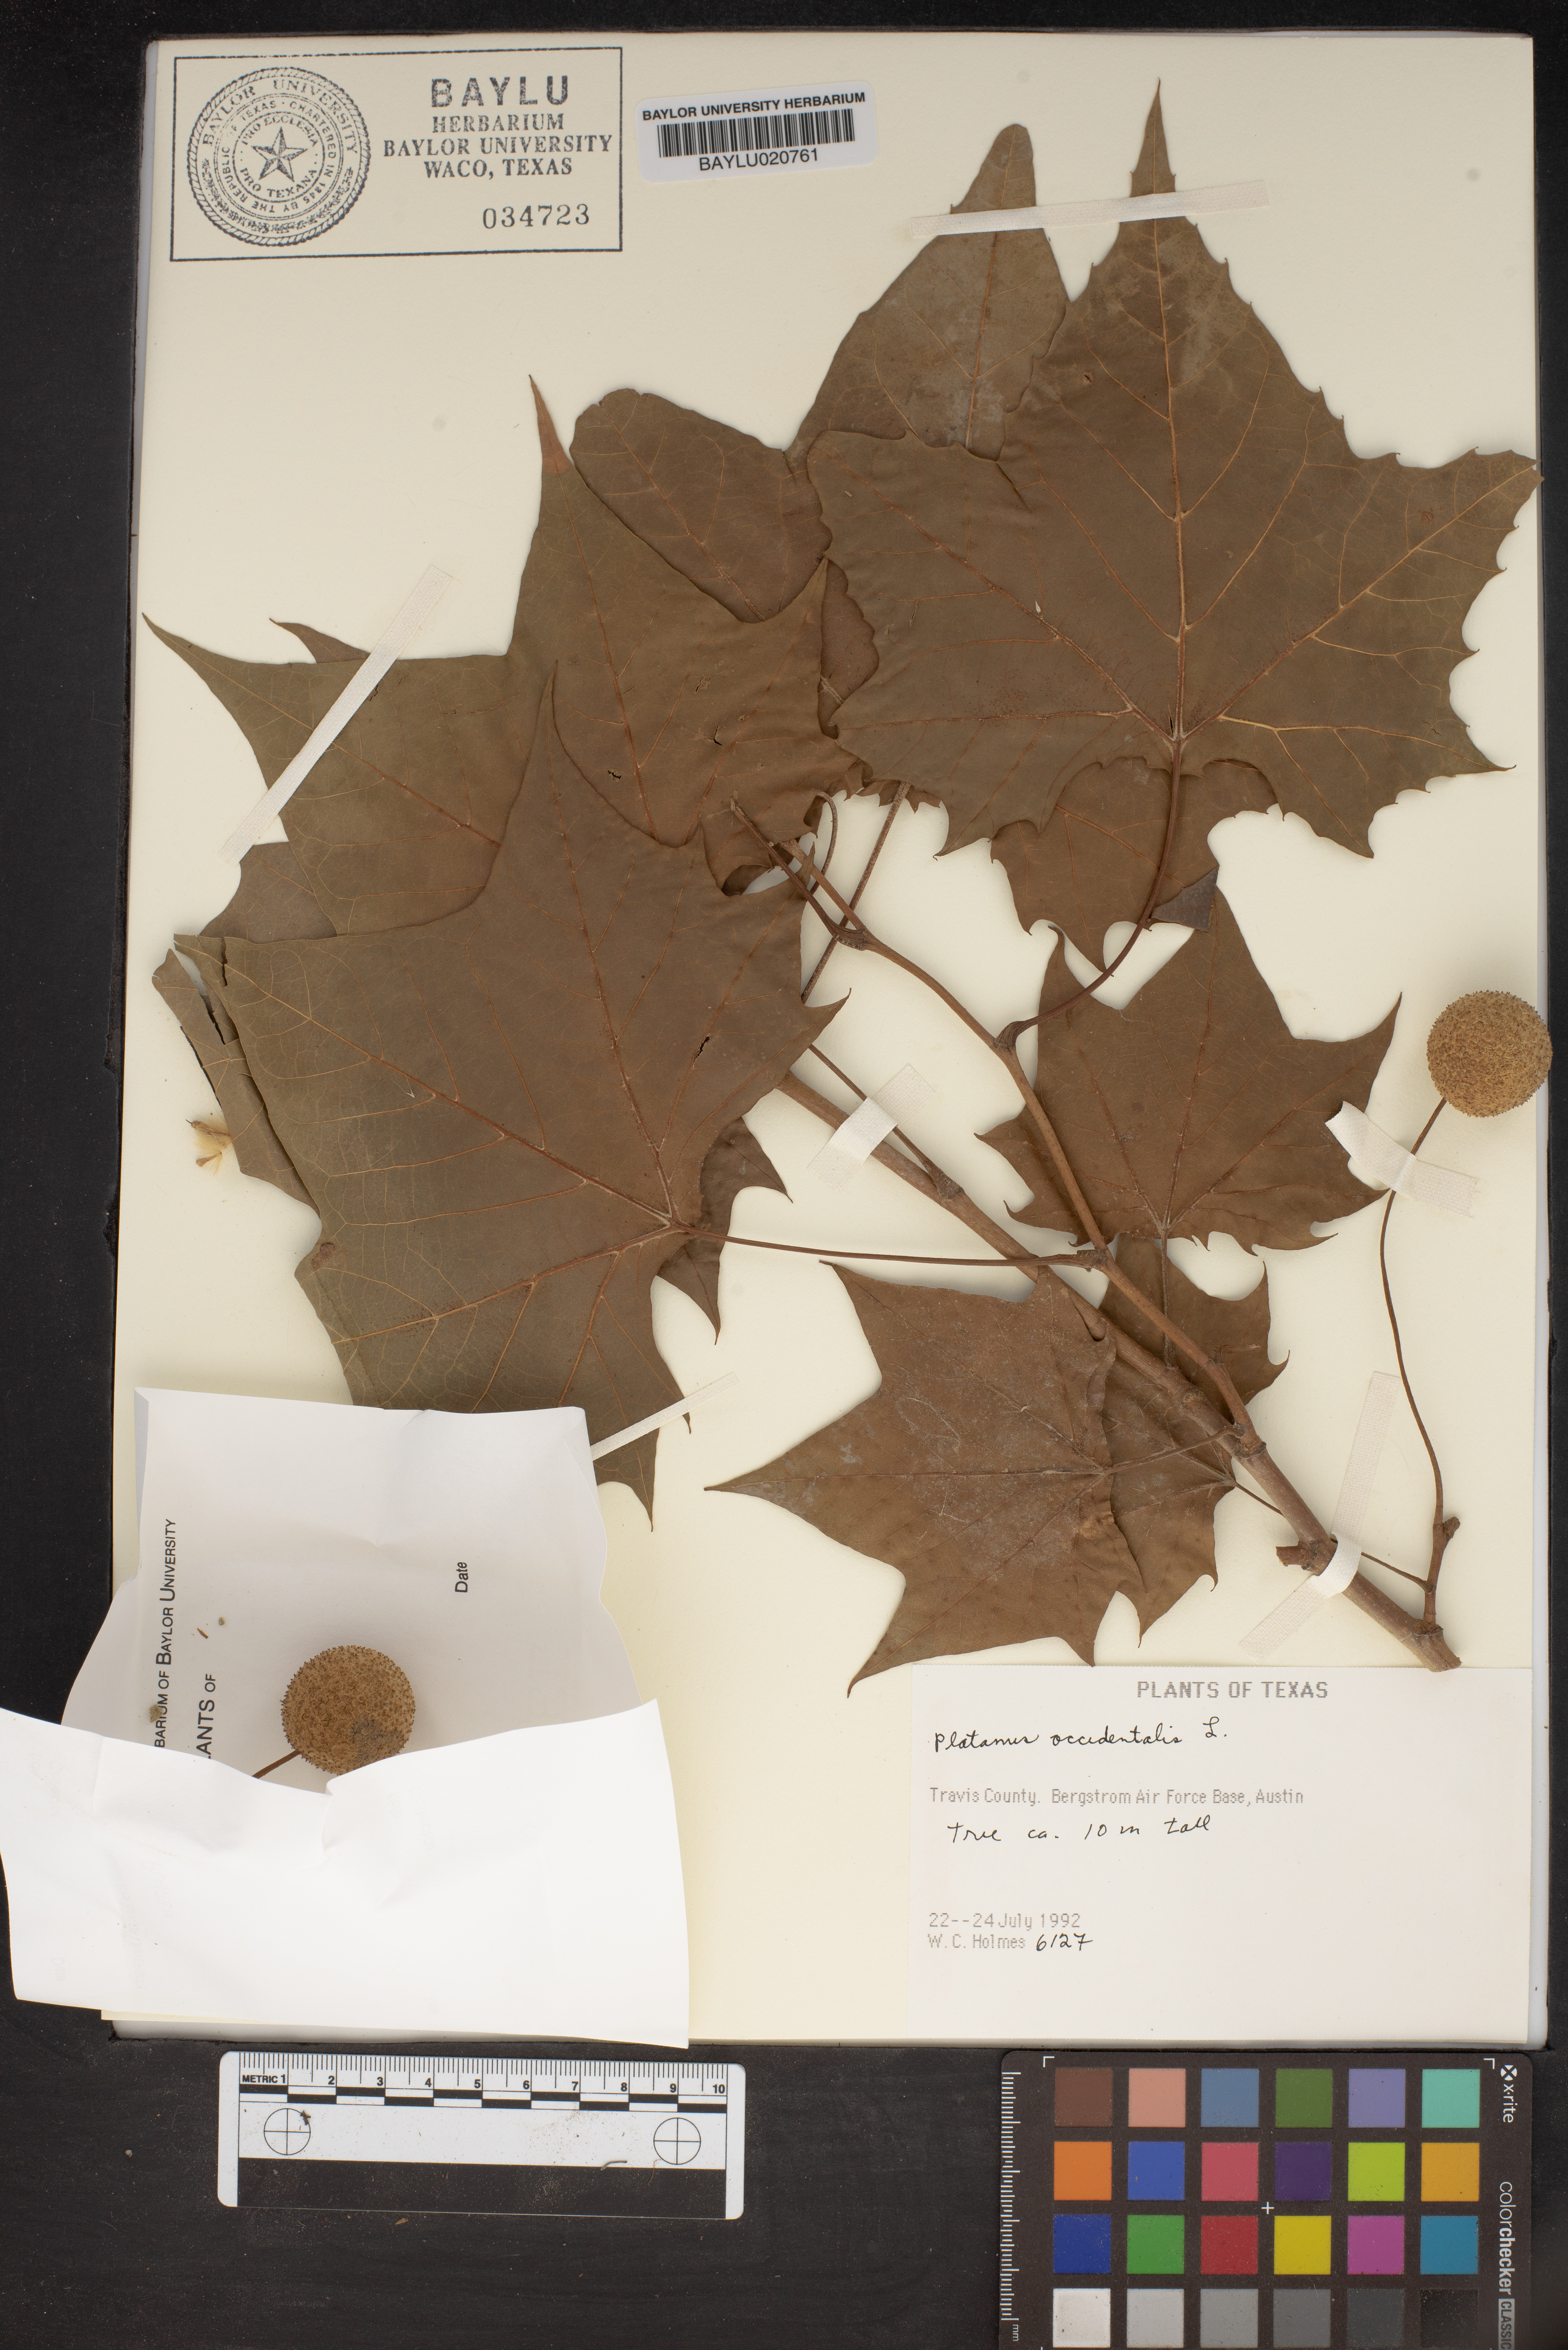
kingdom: Plantae
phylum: Tracheophyta
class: Magnoliopsida
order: Proteales
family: Platanaceae
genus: Platanus
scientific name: Platanus occidentalis
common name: American sycamore
